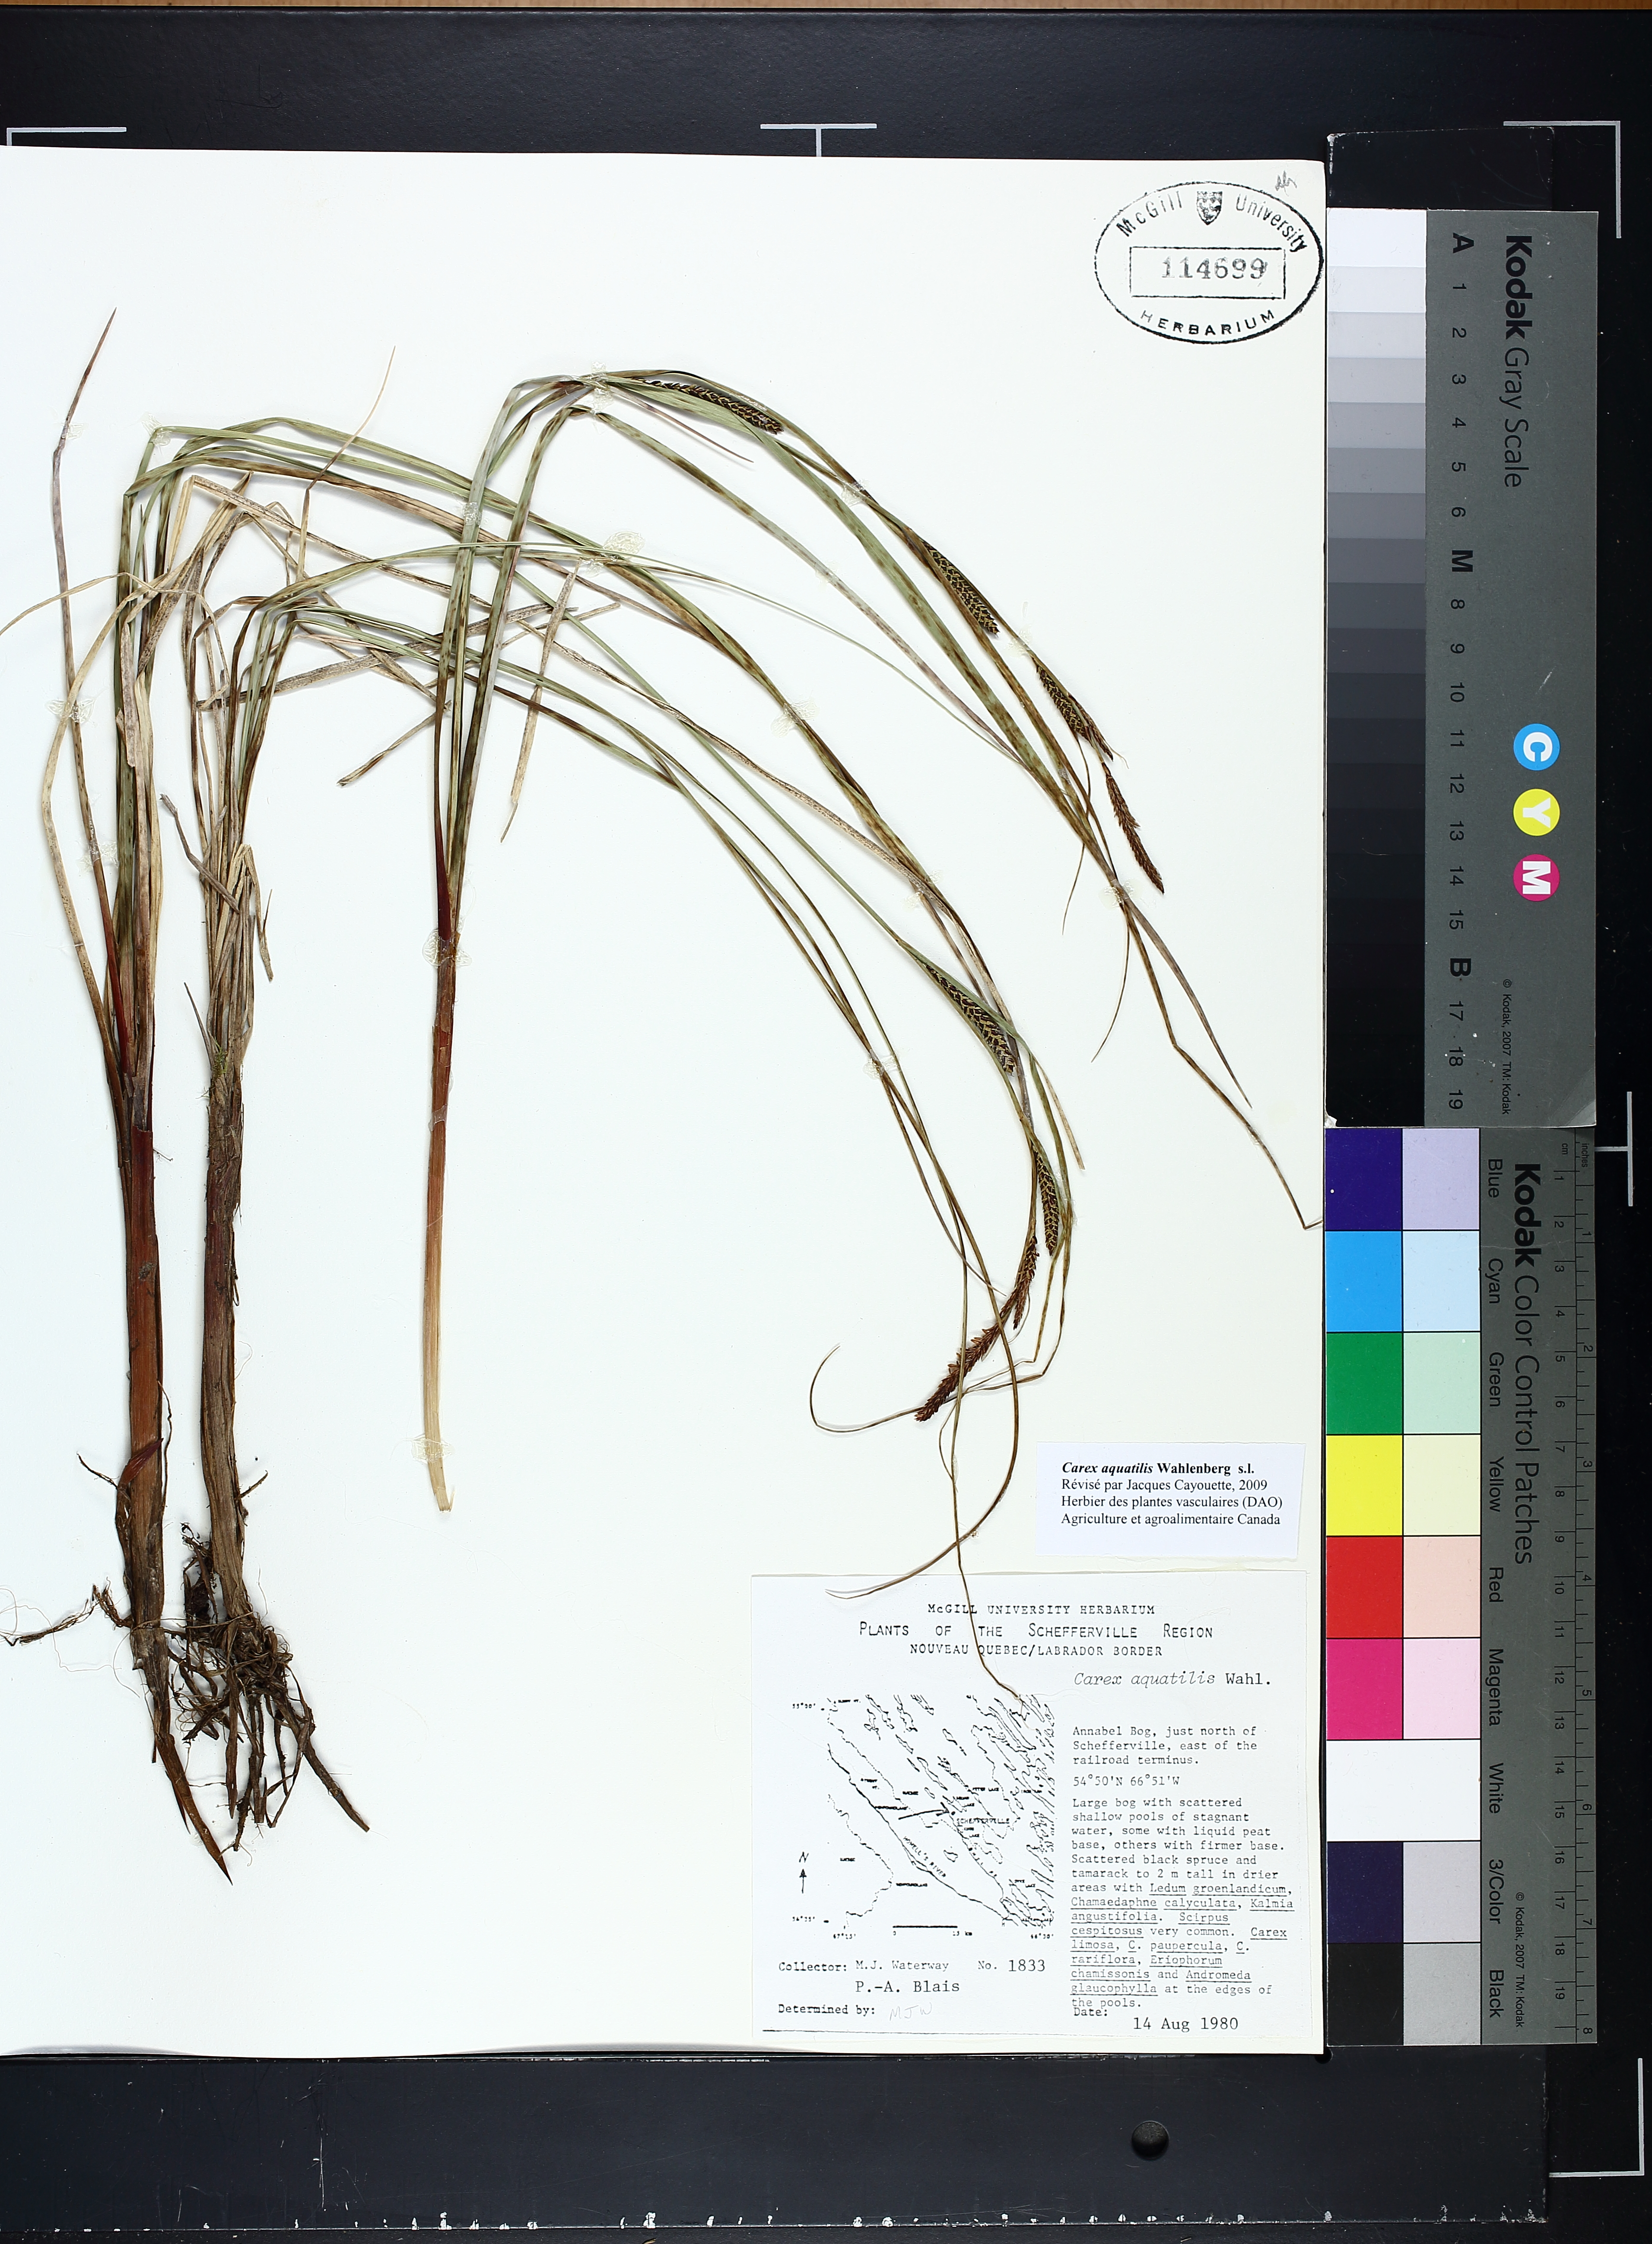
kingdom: Plantae
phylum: Tracheophyta
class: Liliopsida
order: Poales
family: Cyperaceae
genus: Carex
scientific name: Carex aquatilis
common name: Water sedge
